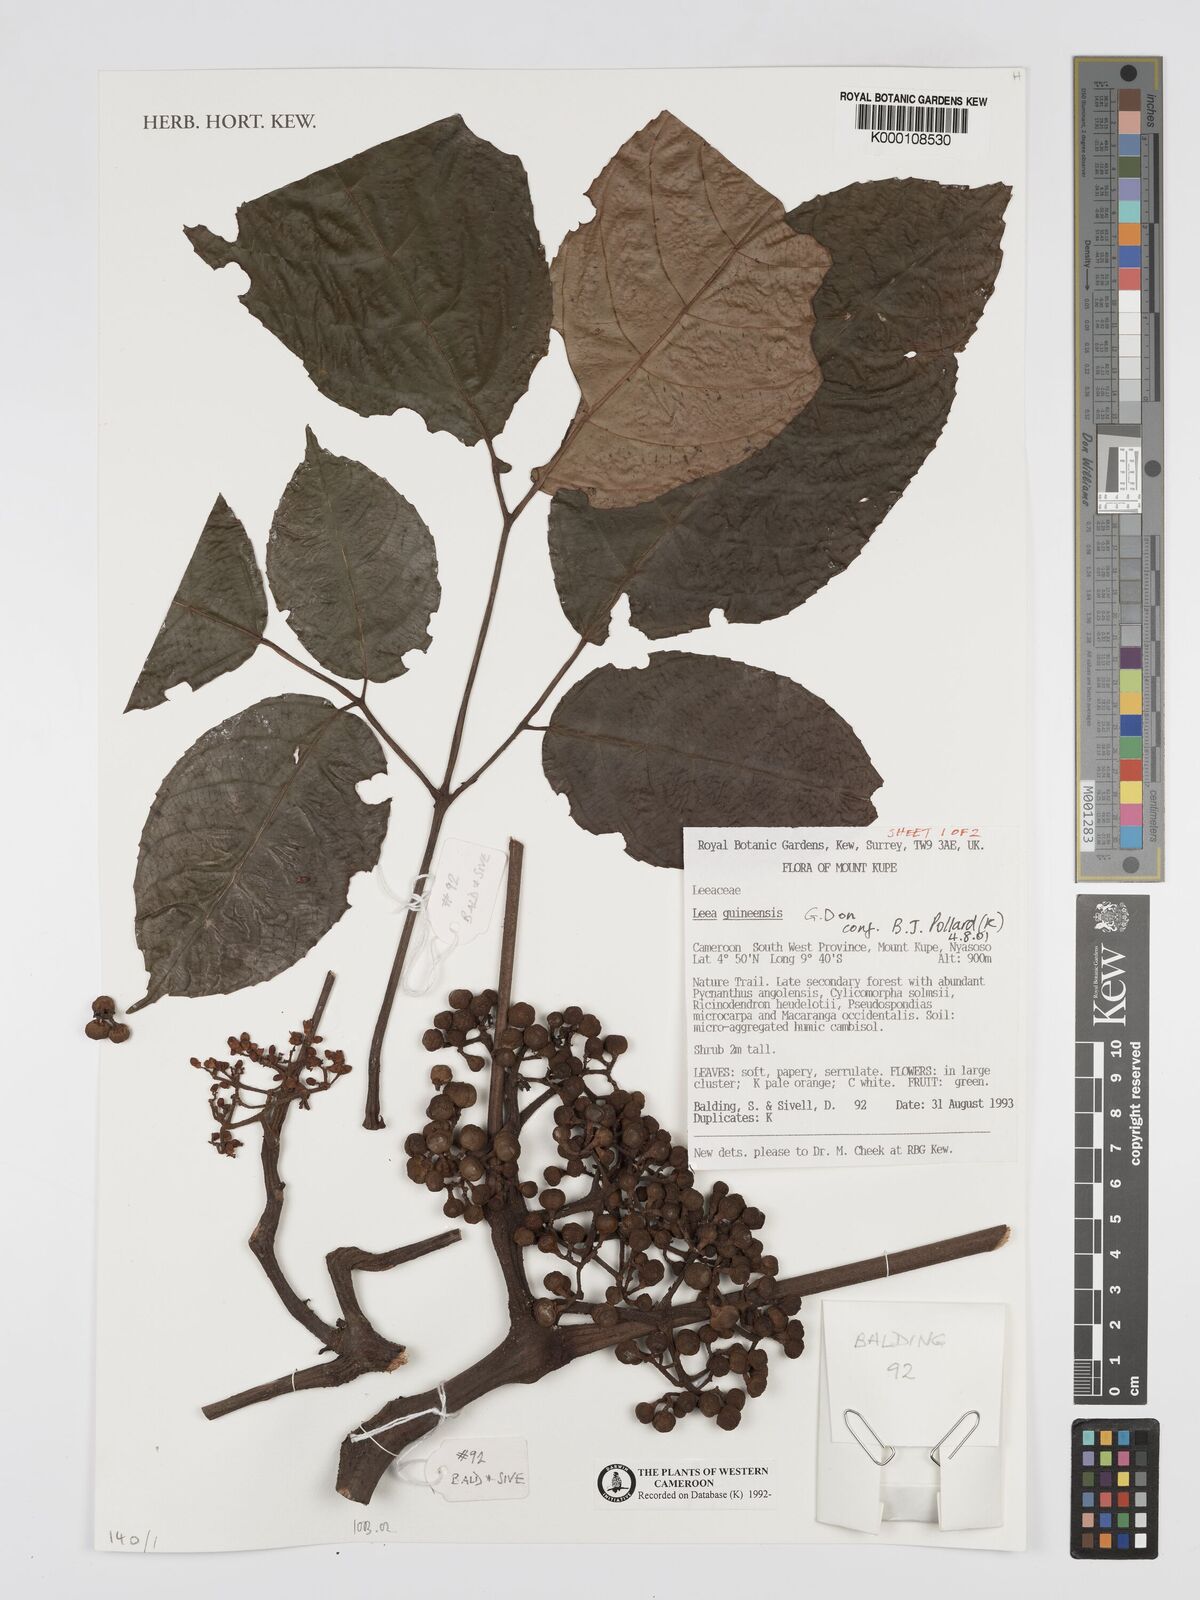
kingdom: Plantae
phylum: Tracheophyta
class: Magnoliopsida
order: Vitales
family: Vitaceae
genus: Leea
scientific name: Leea guineensis
